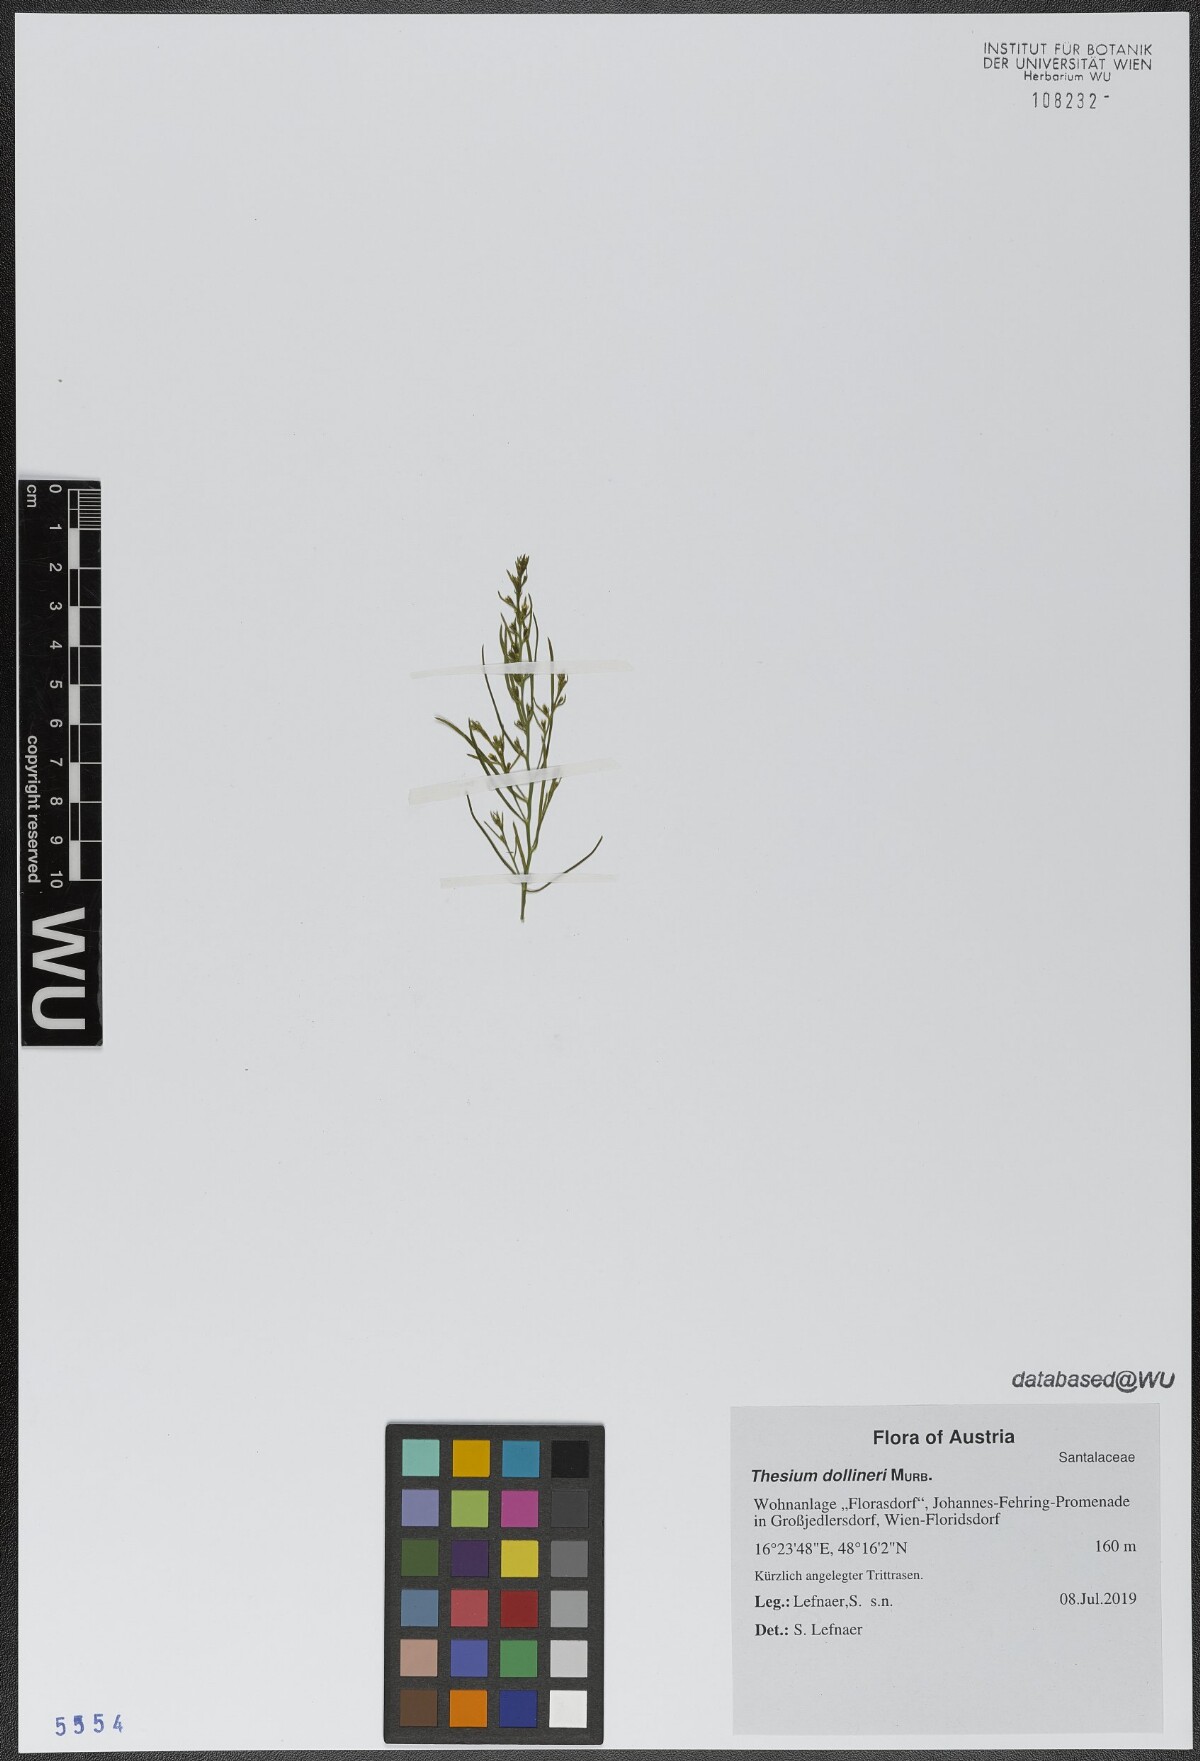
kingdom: Plantae
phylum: Tracheophyta
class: Magnoliopsida
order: Santalales
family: Thesiaceae
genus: Thesium
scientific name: Thesium dollineri
